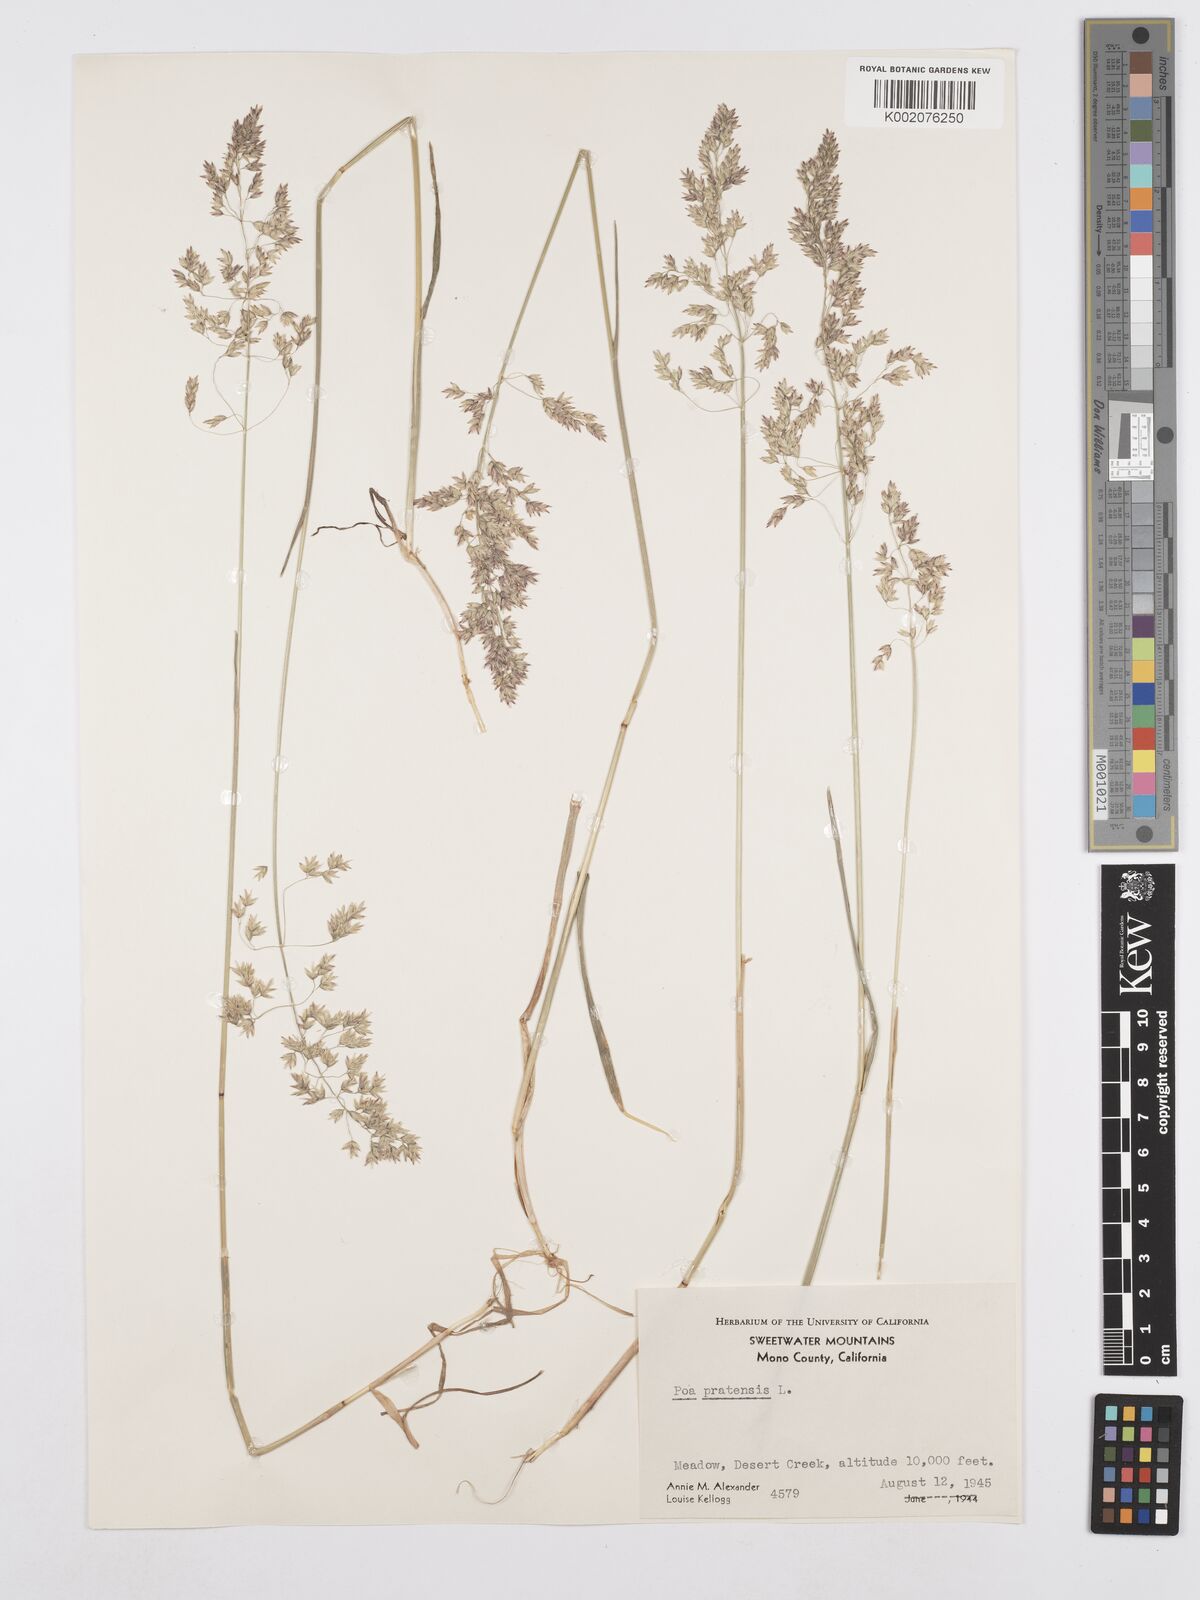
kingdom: Plantae
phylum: Tracheophyta
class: Liliopsida
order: Poales
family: Poaceae
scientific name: Poaceae
